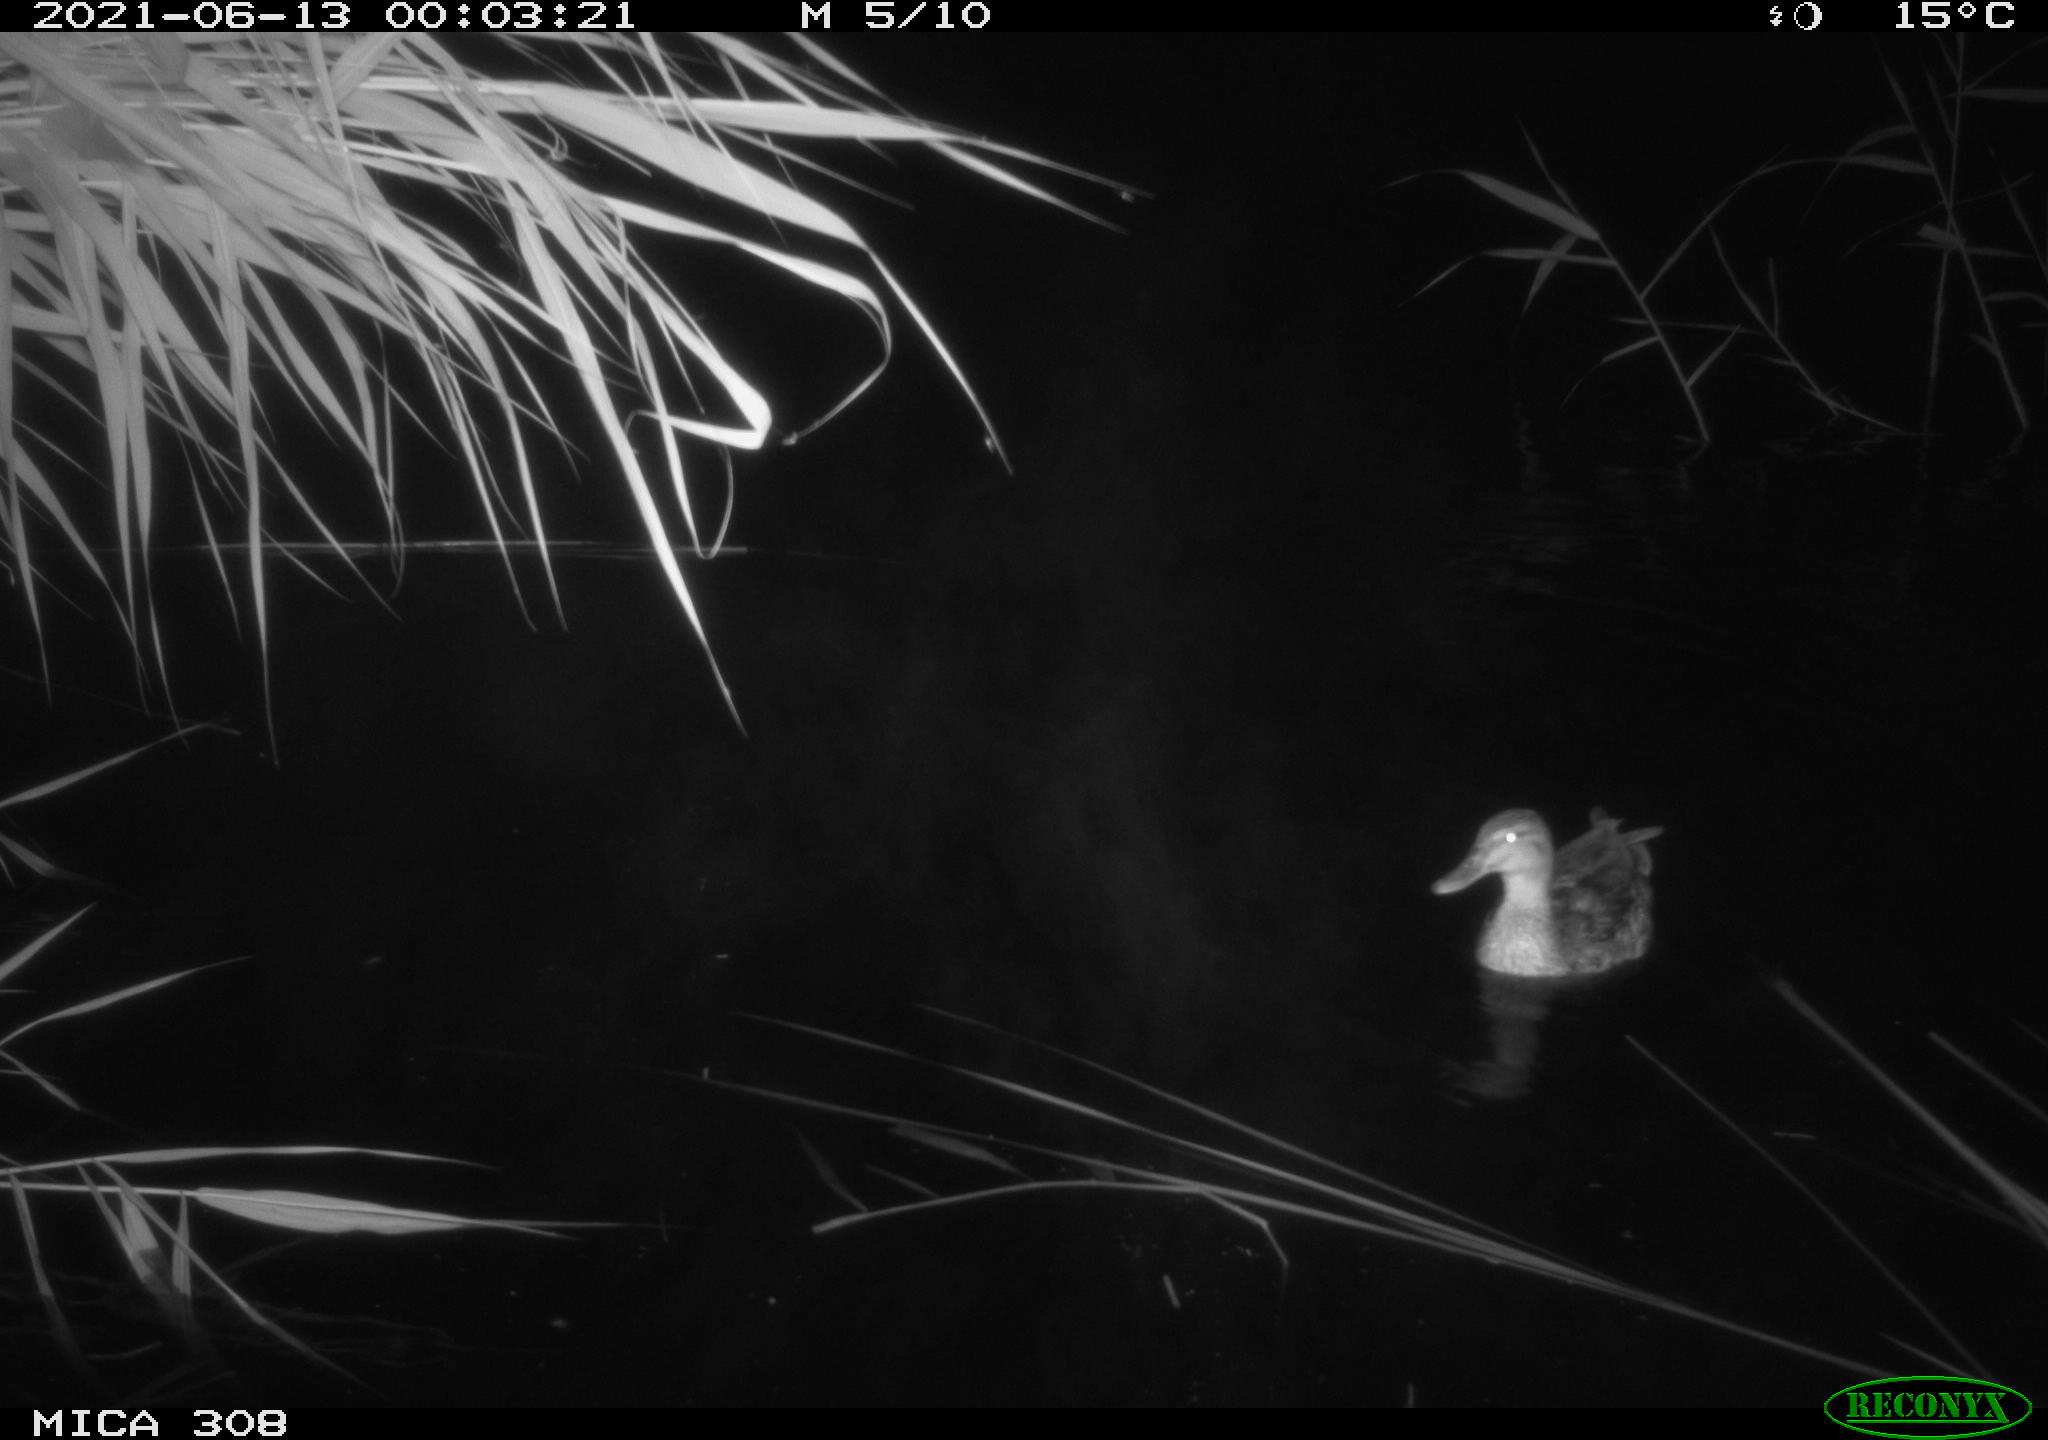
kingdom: Animalia
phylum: Chordata
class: Aves
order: Anseriformes
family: Anatidae
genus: Anas
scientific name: Anas platyrhynchos
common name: Mallard
